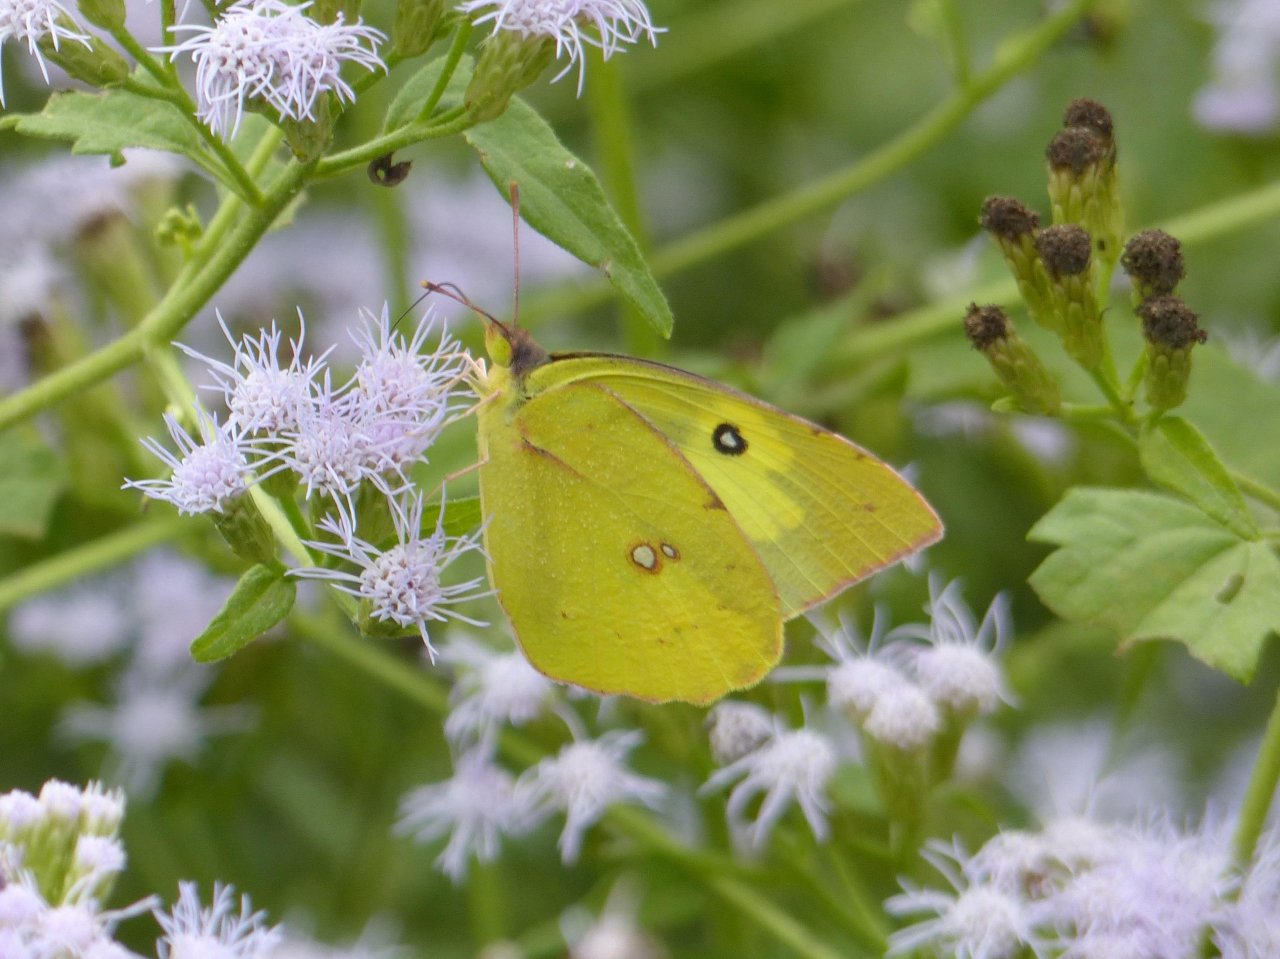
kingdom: Animalia
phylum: Arthropoda
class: Insecta
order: Lepidoptera
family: Pieridae
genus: Zerene
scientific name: Zerene cesonia
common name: Southern Dogface
